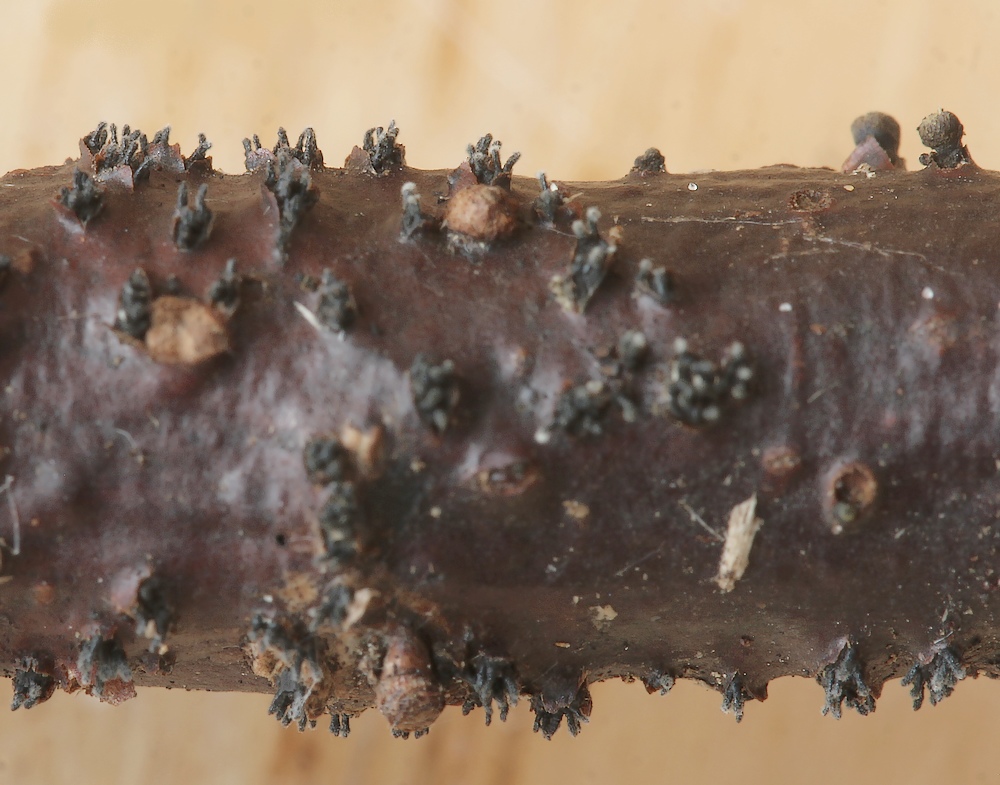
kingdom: Fungi
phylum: Ascomycota
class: Sordariomycetes
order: Diaporthales
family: Diaporthaceae
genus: Diaporthe
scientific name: Diaporthe strumella
